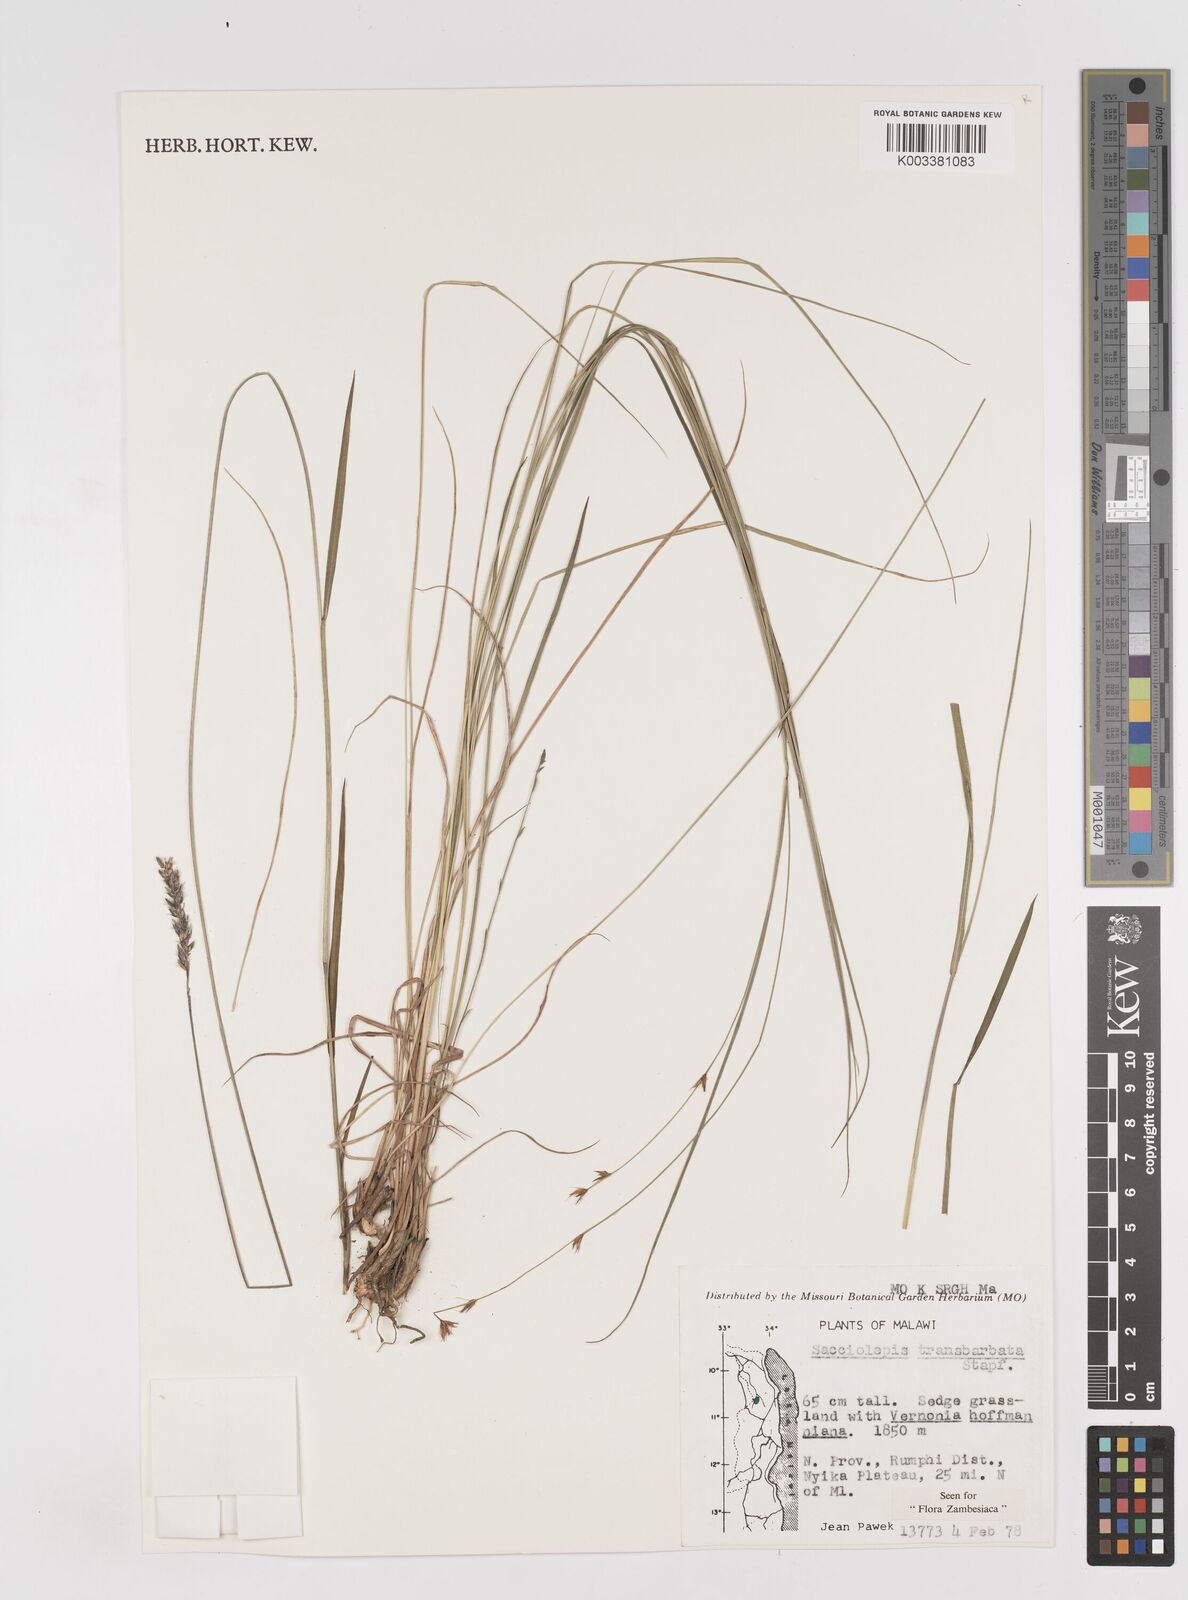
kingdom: Plantae
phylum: Tracheophyta
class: Liliopsida
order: Poales
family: Poaceae
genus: Sacciolepis
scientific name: Sacciolepis transbarbata
